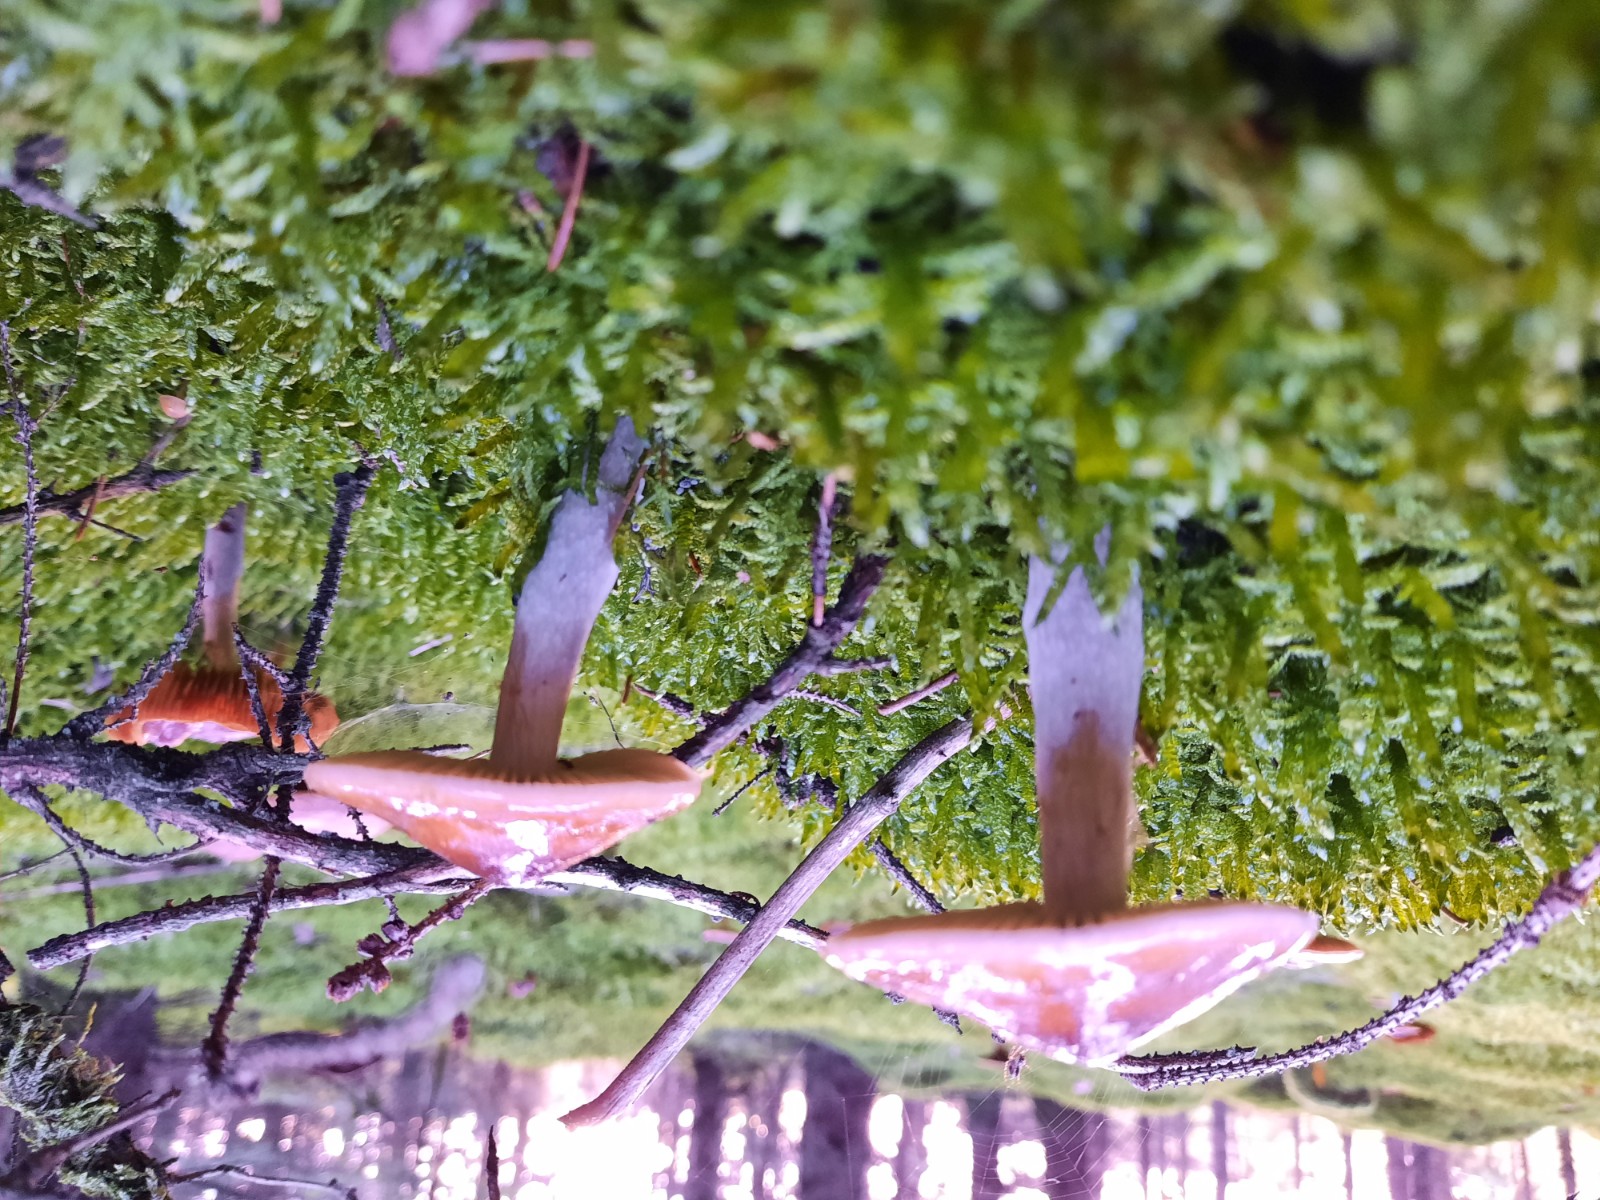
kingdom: Fungi
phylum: Basidiomycota
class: Agaricomycetes
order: Agaricales
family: Cortinariaceae
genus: Cortinarius
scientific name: Cortinarius collinitus
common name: spættet slørhat
